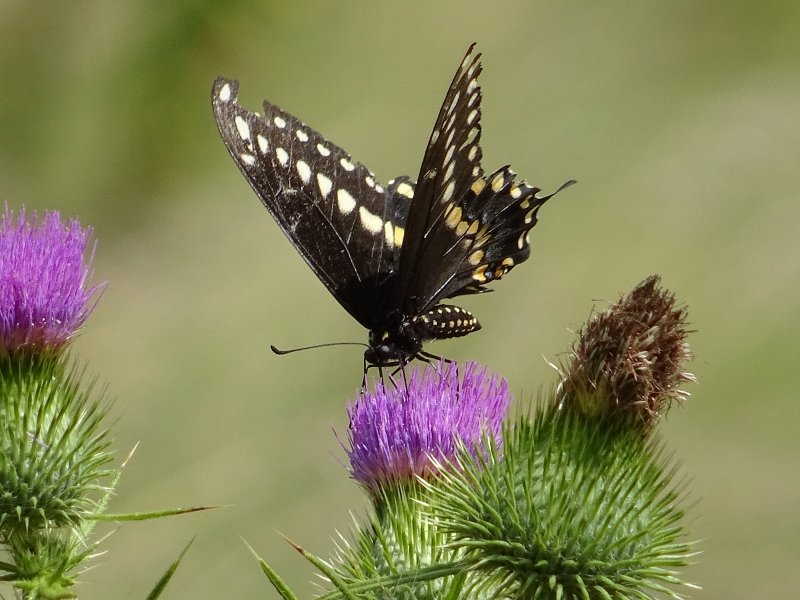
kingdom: Animalia
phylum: Arthropoda
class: Insecta
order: Lepidoptera
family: Papilionidae
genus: Papilio
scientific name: Papilio polyxenes
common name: Black Swallowtail
